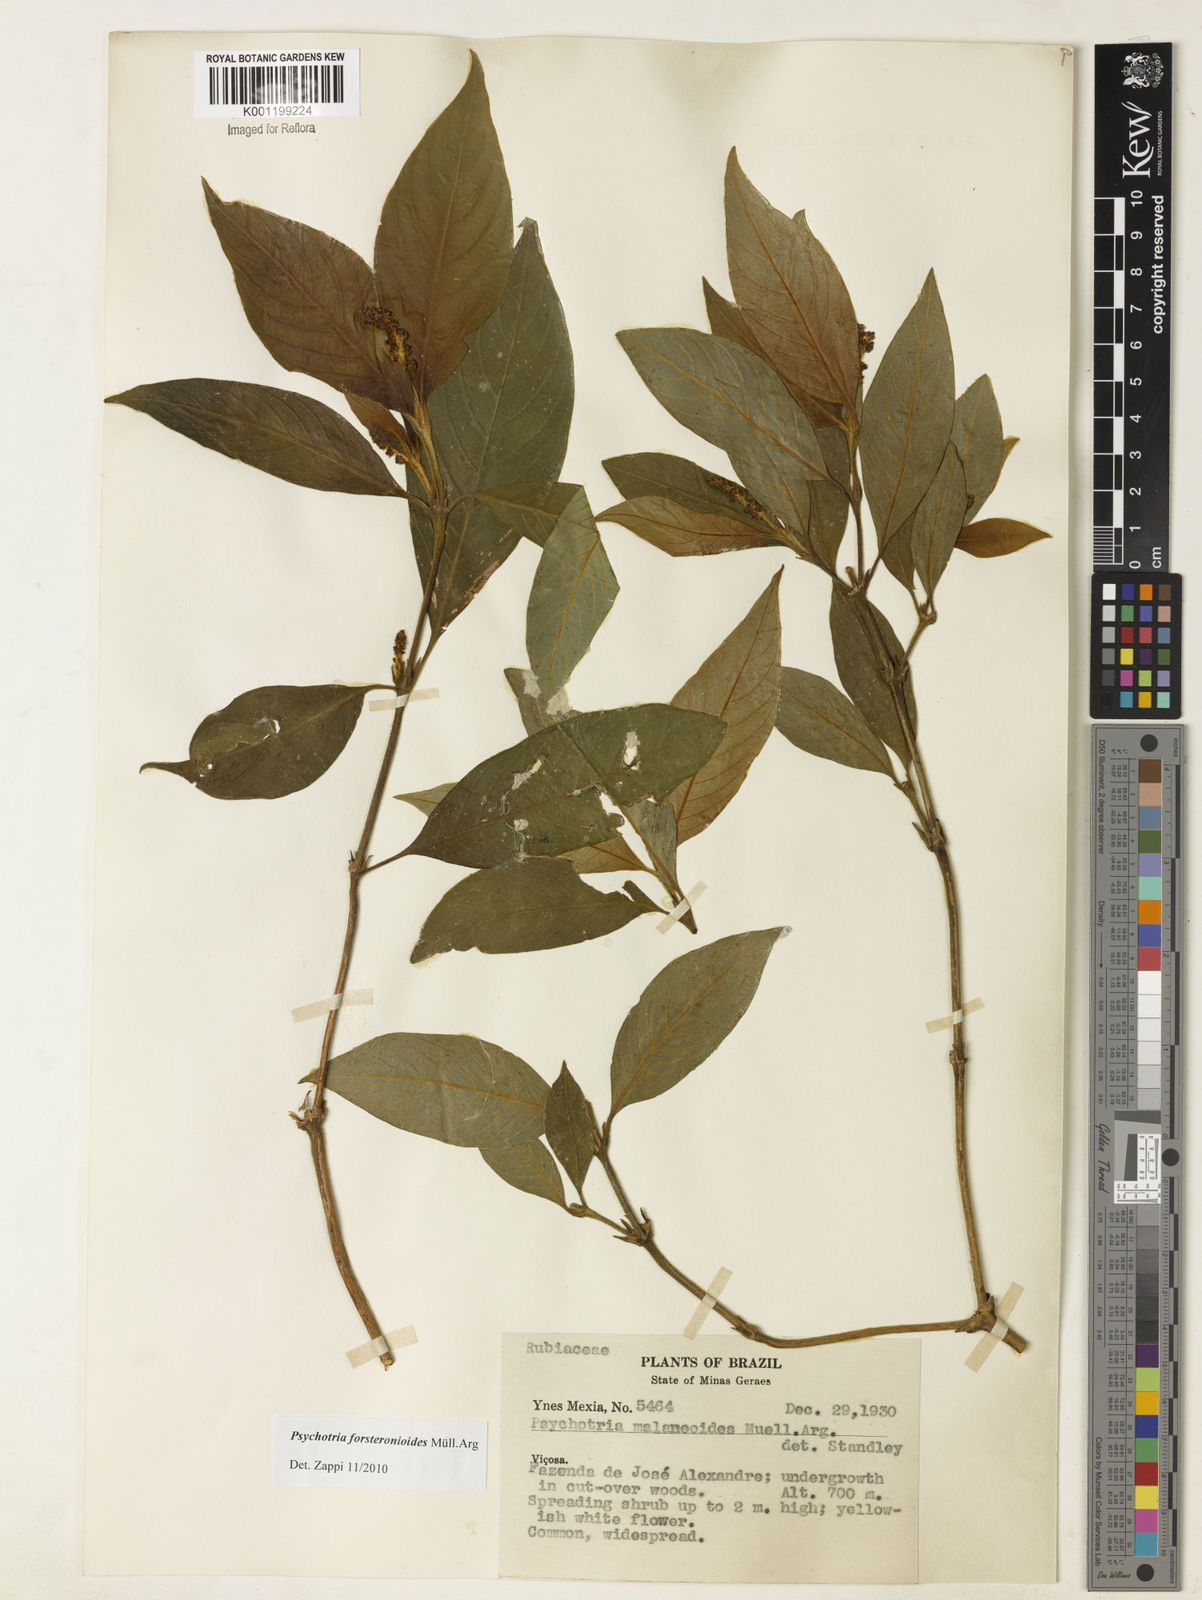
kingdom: Plantae
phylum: Tracheophyta
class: Magnoliopsida
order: Gentianales
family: Rubiaceae
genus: Psychotria
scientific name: Psychotria
